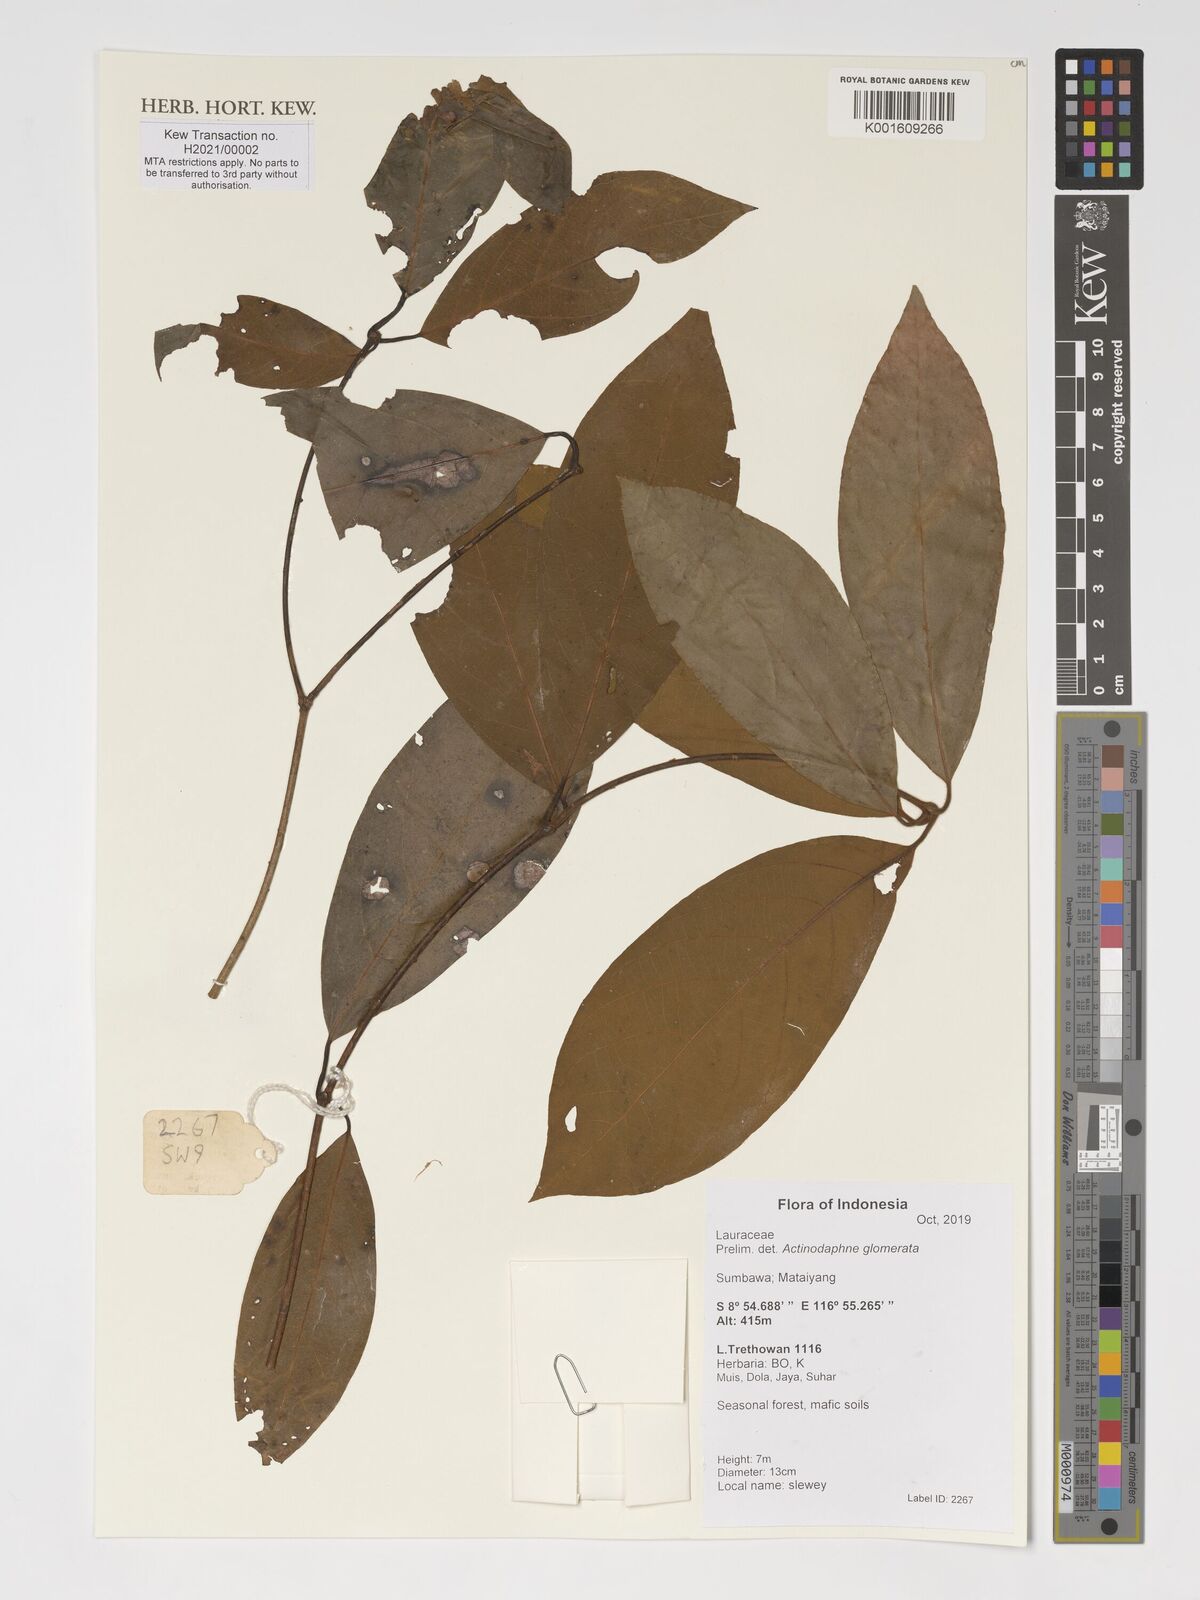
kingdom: Plantae
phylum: Tracheophyta
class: Magnoliopsida
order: Laurales
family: Lauraceae
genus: Actinodaphne
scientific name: Actinodaphne glomerata
